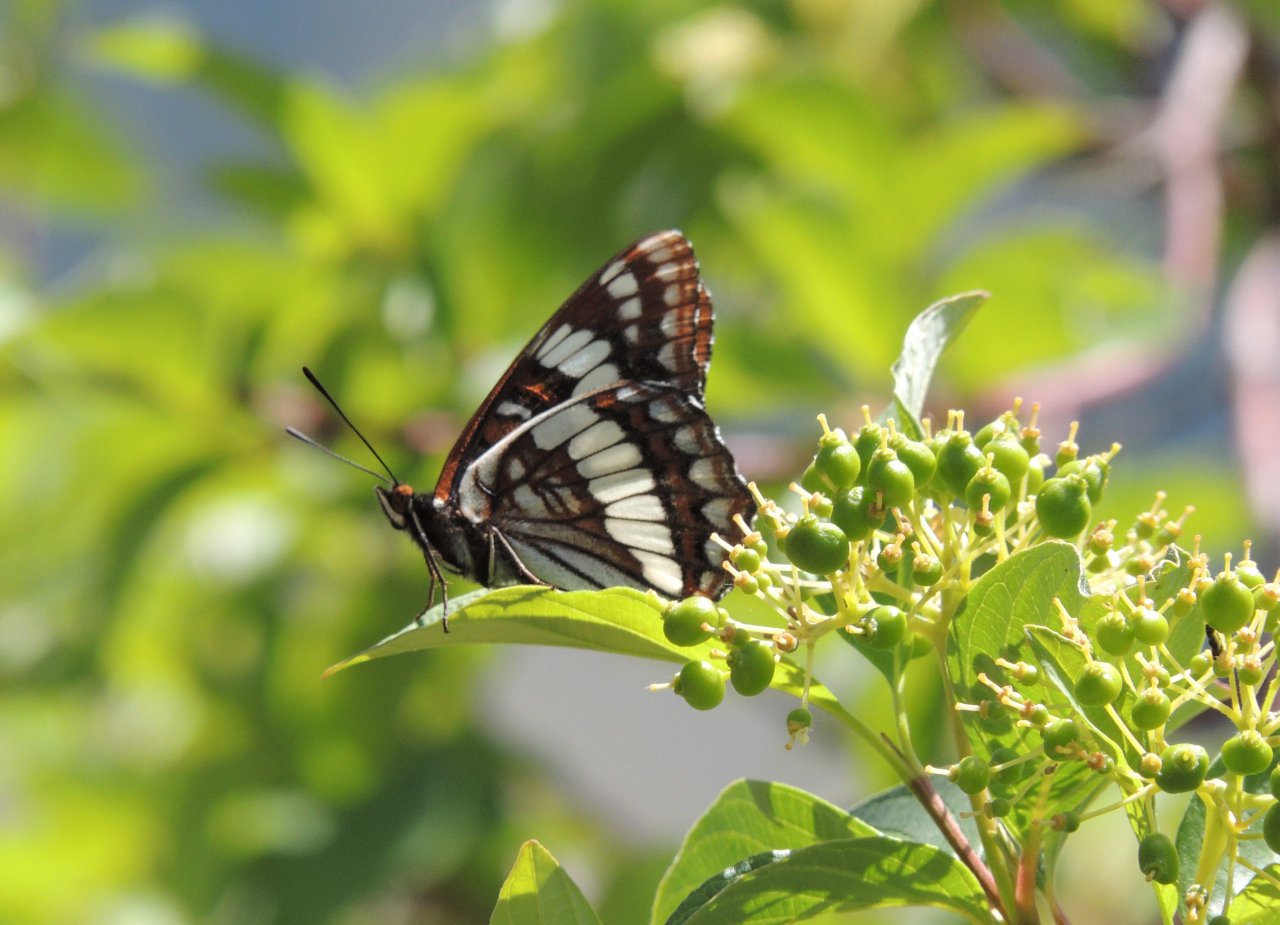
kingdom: Animalia
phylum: Arthropoda
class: Insecta
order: Lepidoptera
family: Nymphalidae
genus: Limenitis
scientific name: Limenitis lorquini
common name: Lorquin's Admiral
